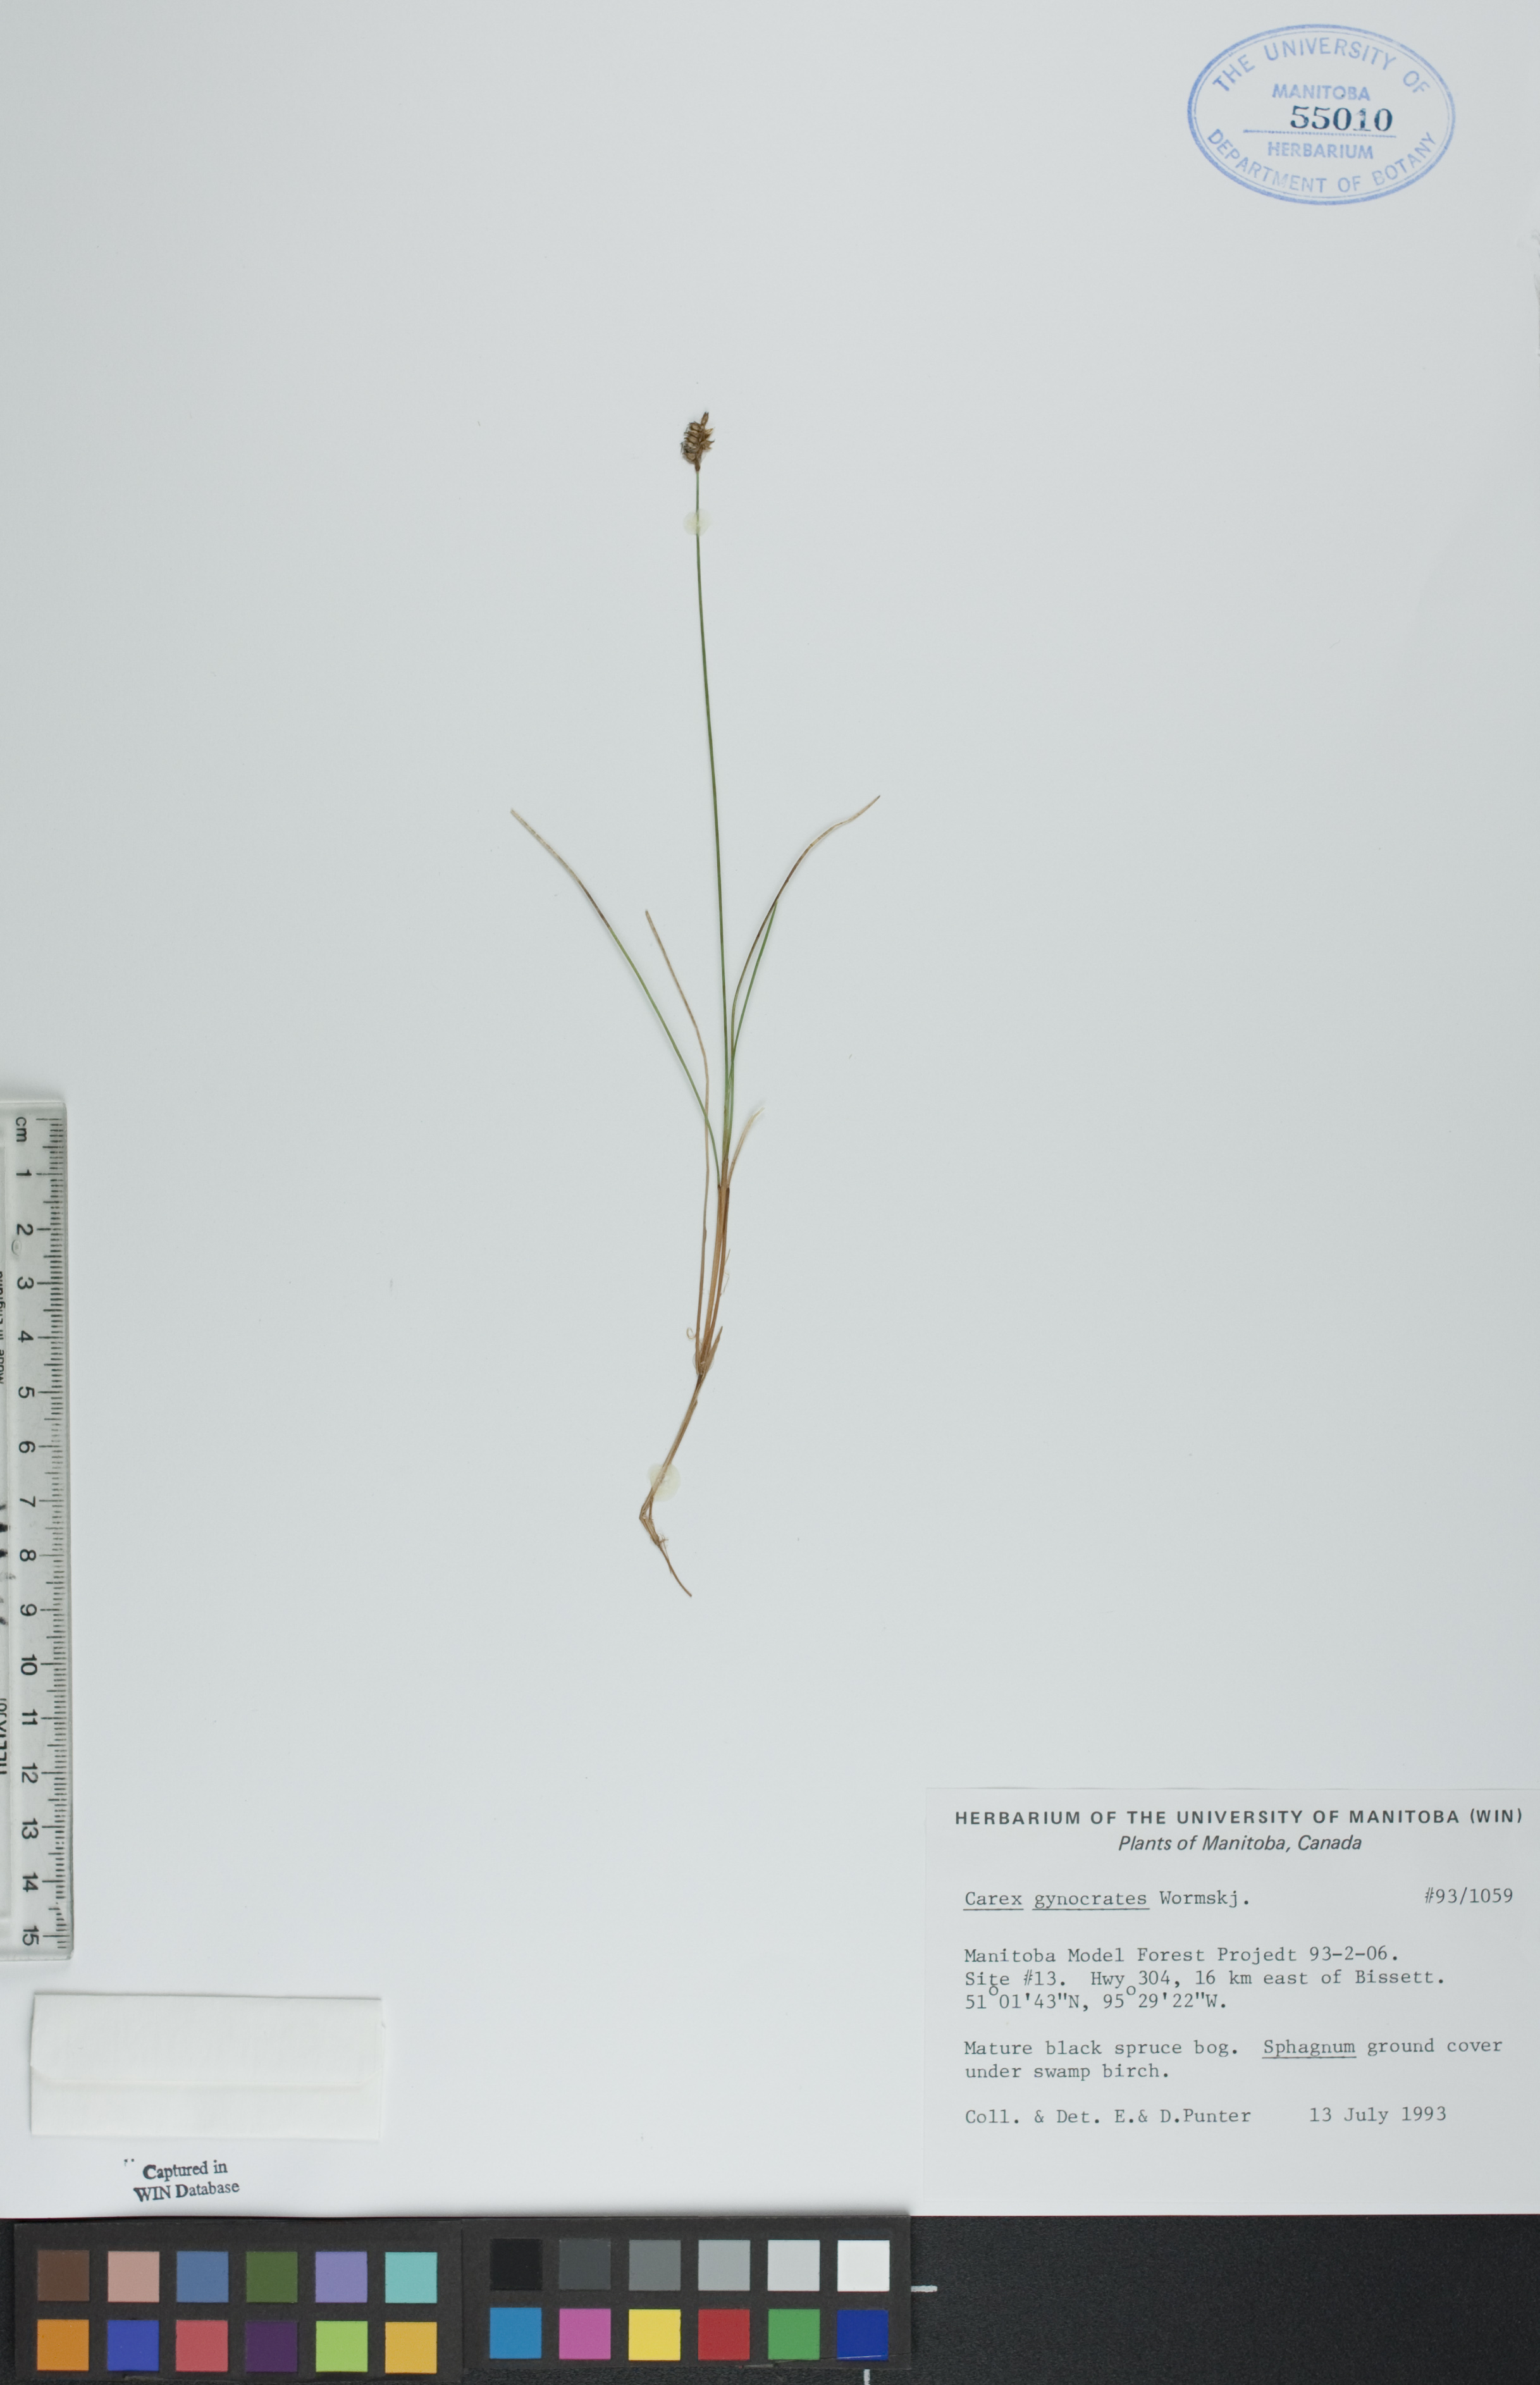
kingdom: Plantae
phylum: Tracheophyta
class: Liliopsida
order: Poales
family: Cyperaceae
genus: Carex
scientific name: Carex nardina
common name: Nard sedge
